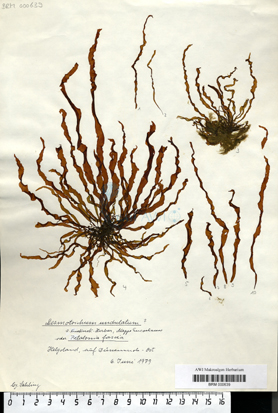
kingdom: Chromista
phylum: Ochrophyta
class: Phaeophyceae
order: Ectocarpales
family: Chordariaceae
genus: Punctaria
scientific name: Punctaria tenuissima
